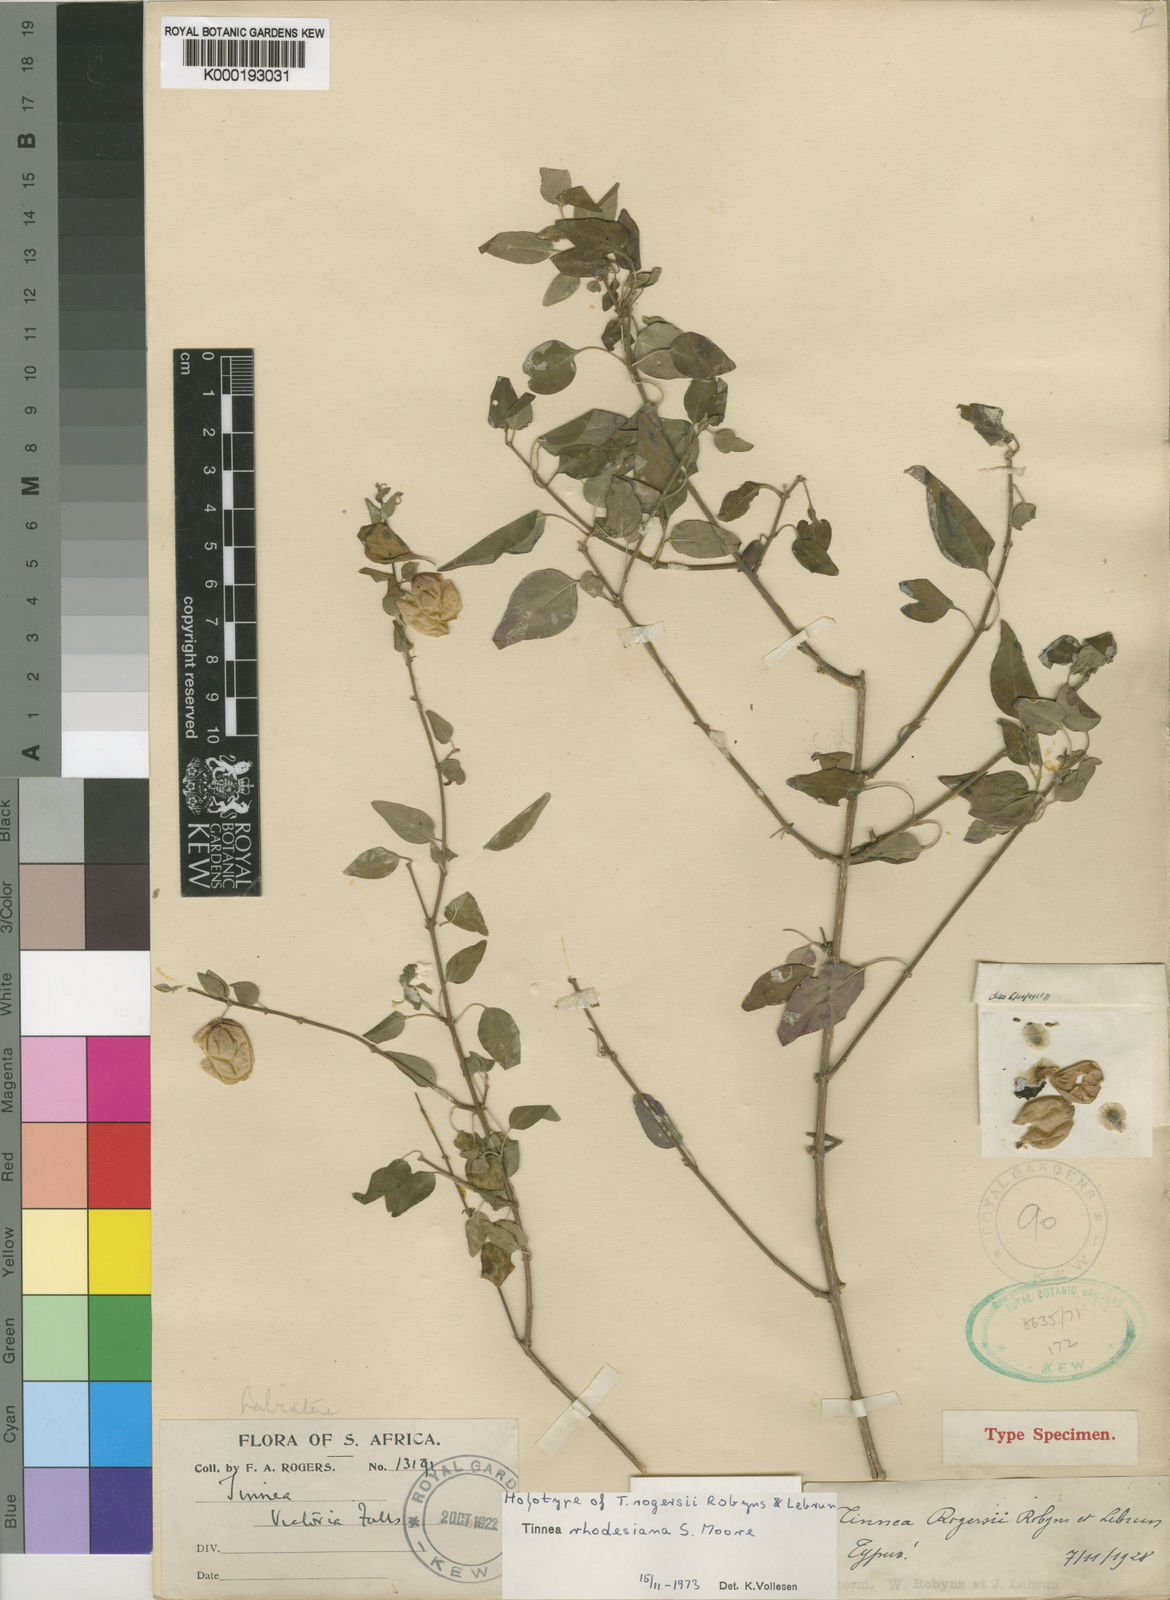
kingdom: Plantae
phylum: Tracheophyta
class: Magnoliopsida
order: Lamiales
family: Lamiaceae
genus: Tinnea
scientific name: Tinnea rhodesiana
